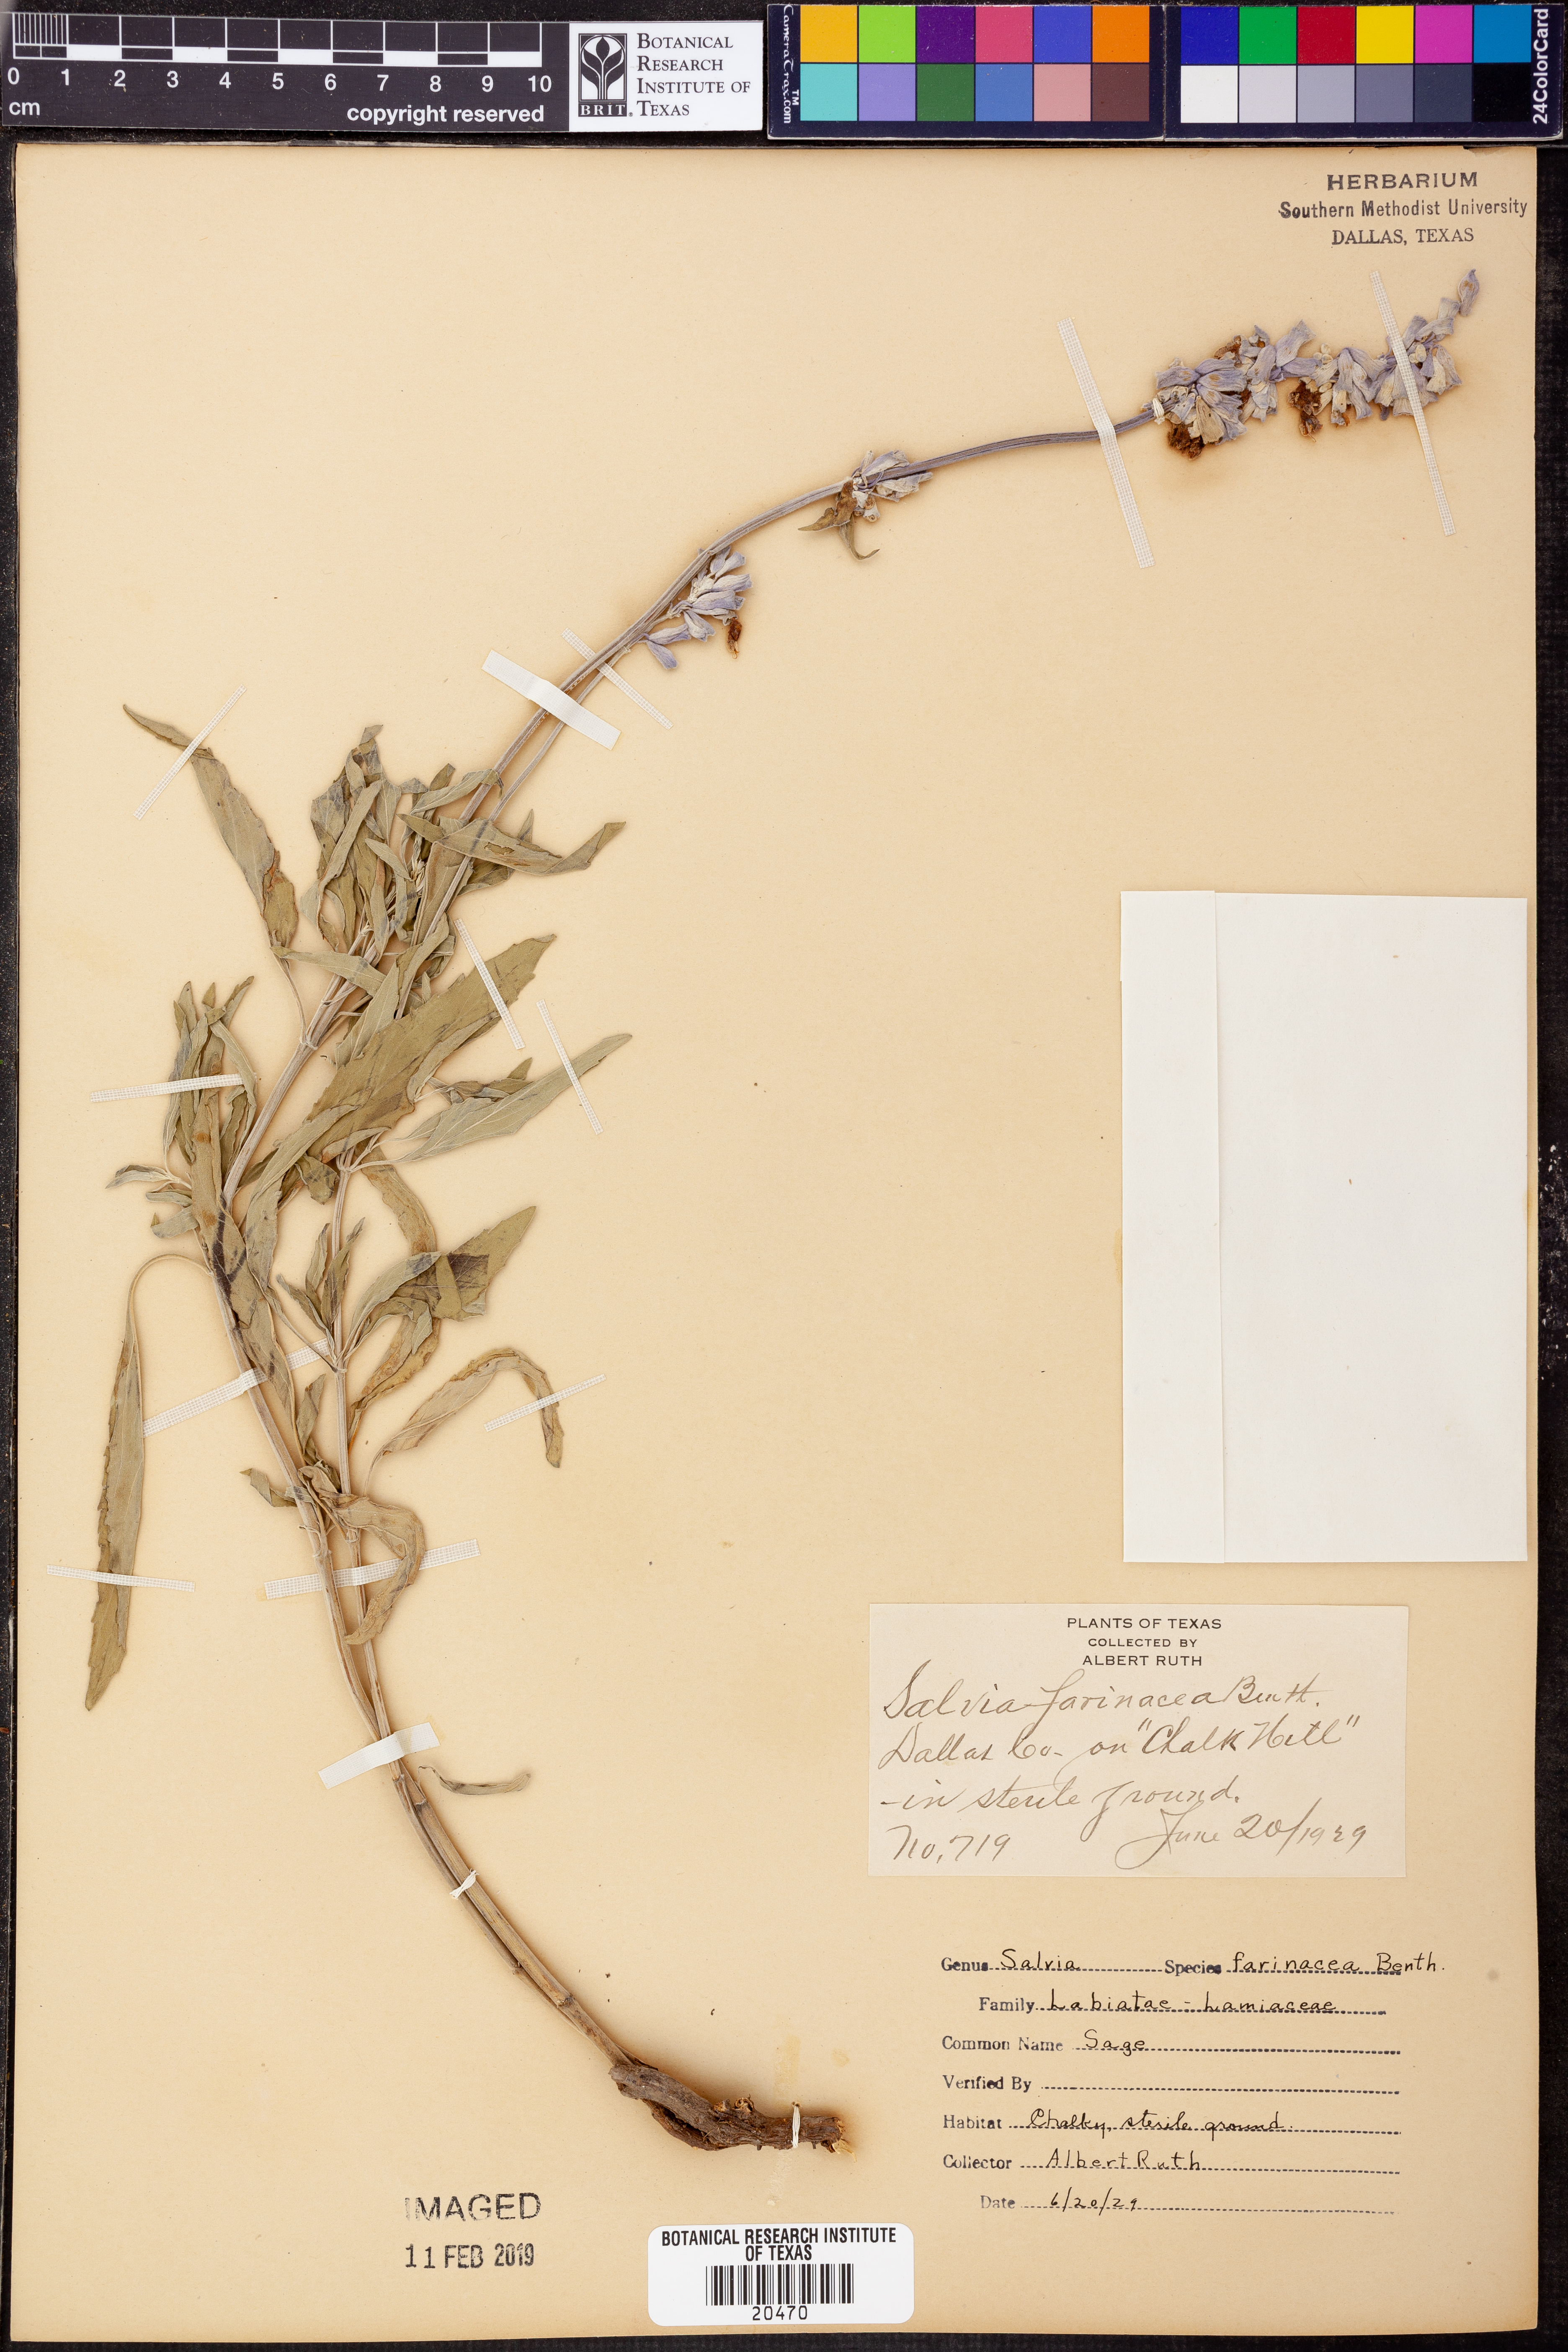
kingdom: Plantae
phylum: Tracheophyta
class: Magnoliopsida
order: Lamiales
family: Lamiaceae
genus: Salvia
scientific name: Salvia farinacea
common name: Mealy sage
